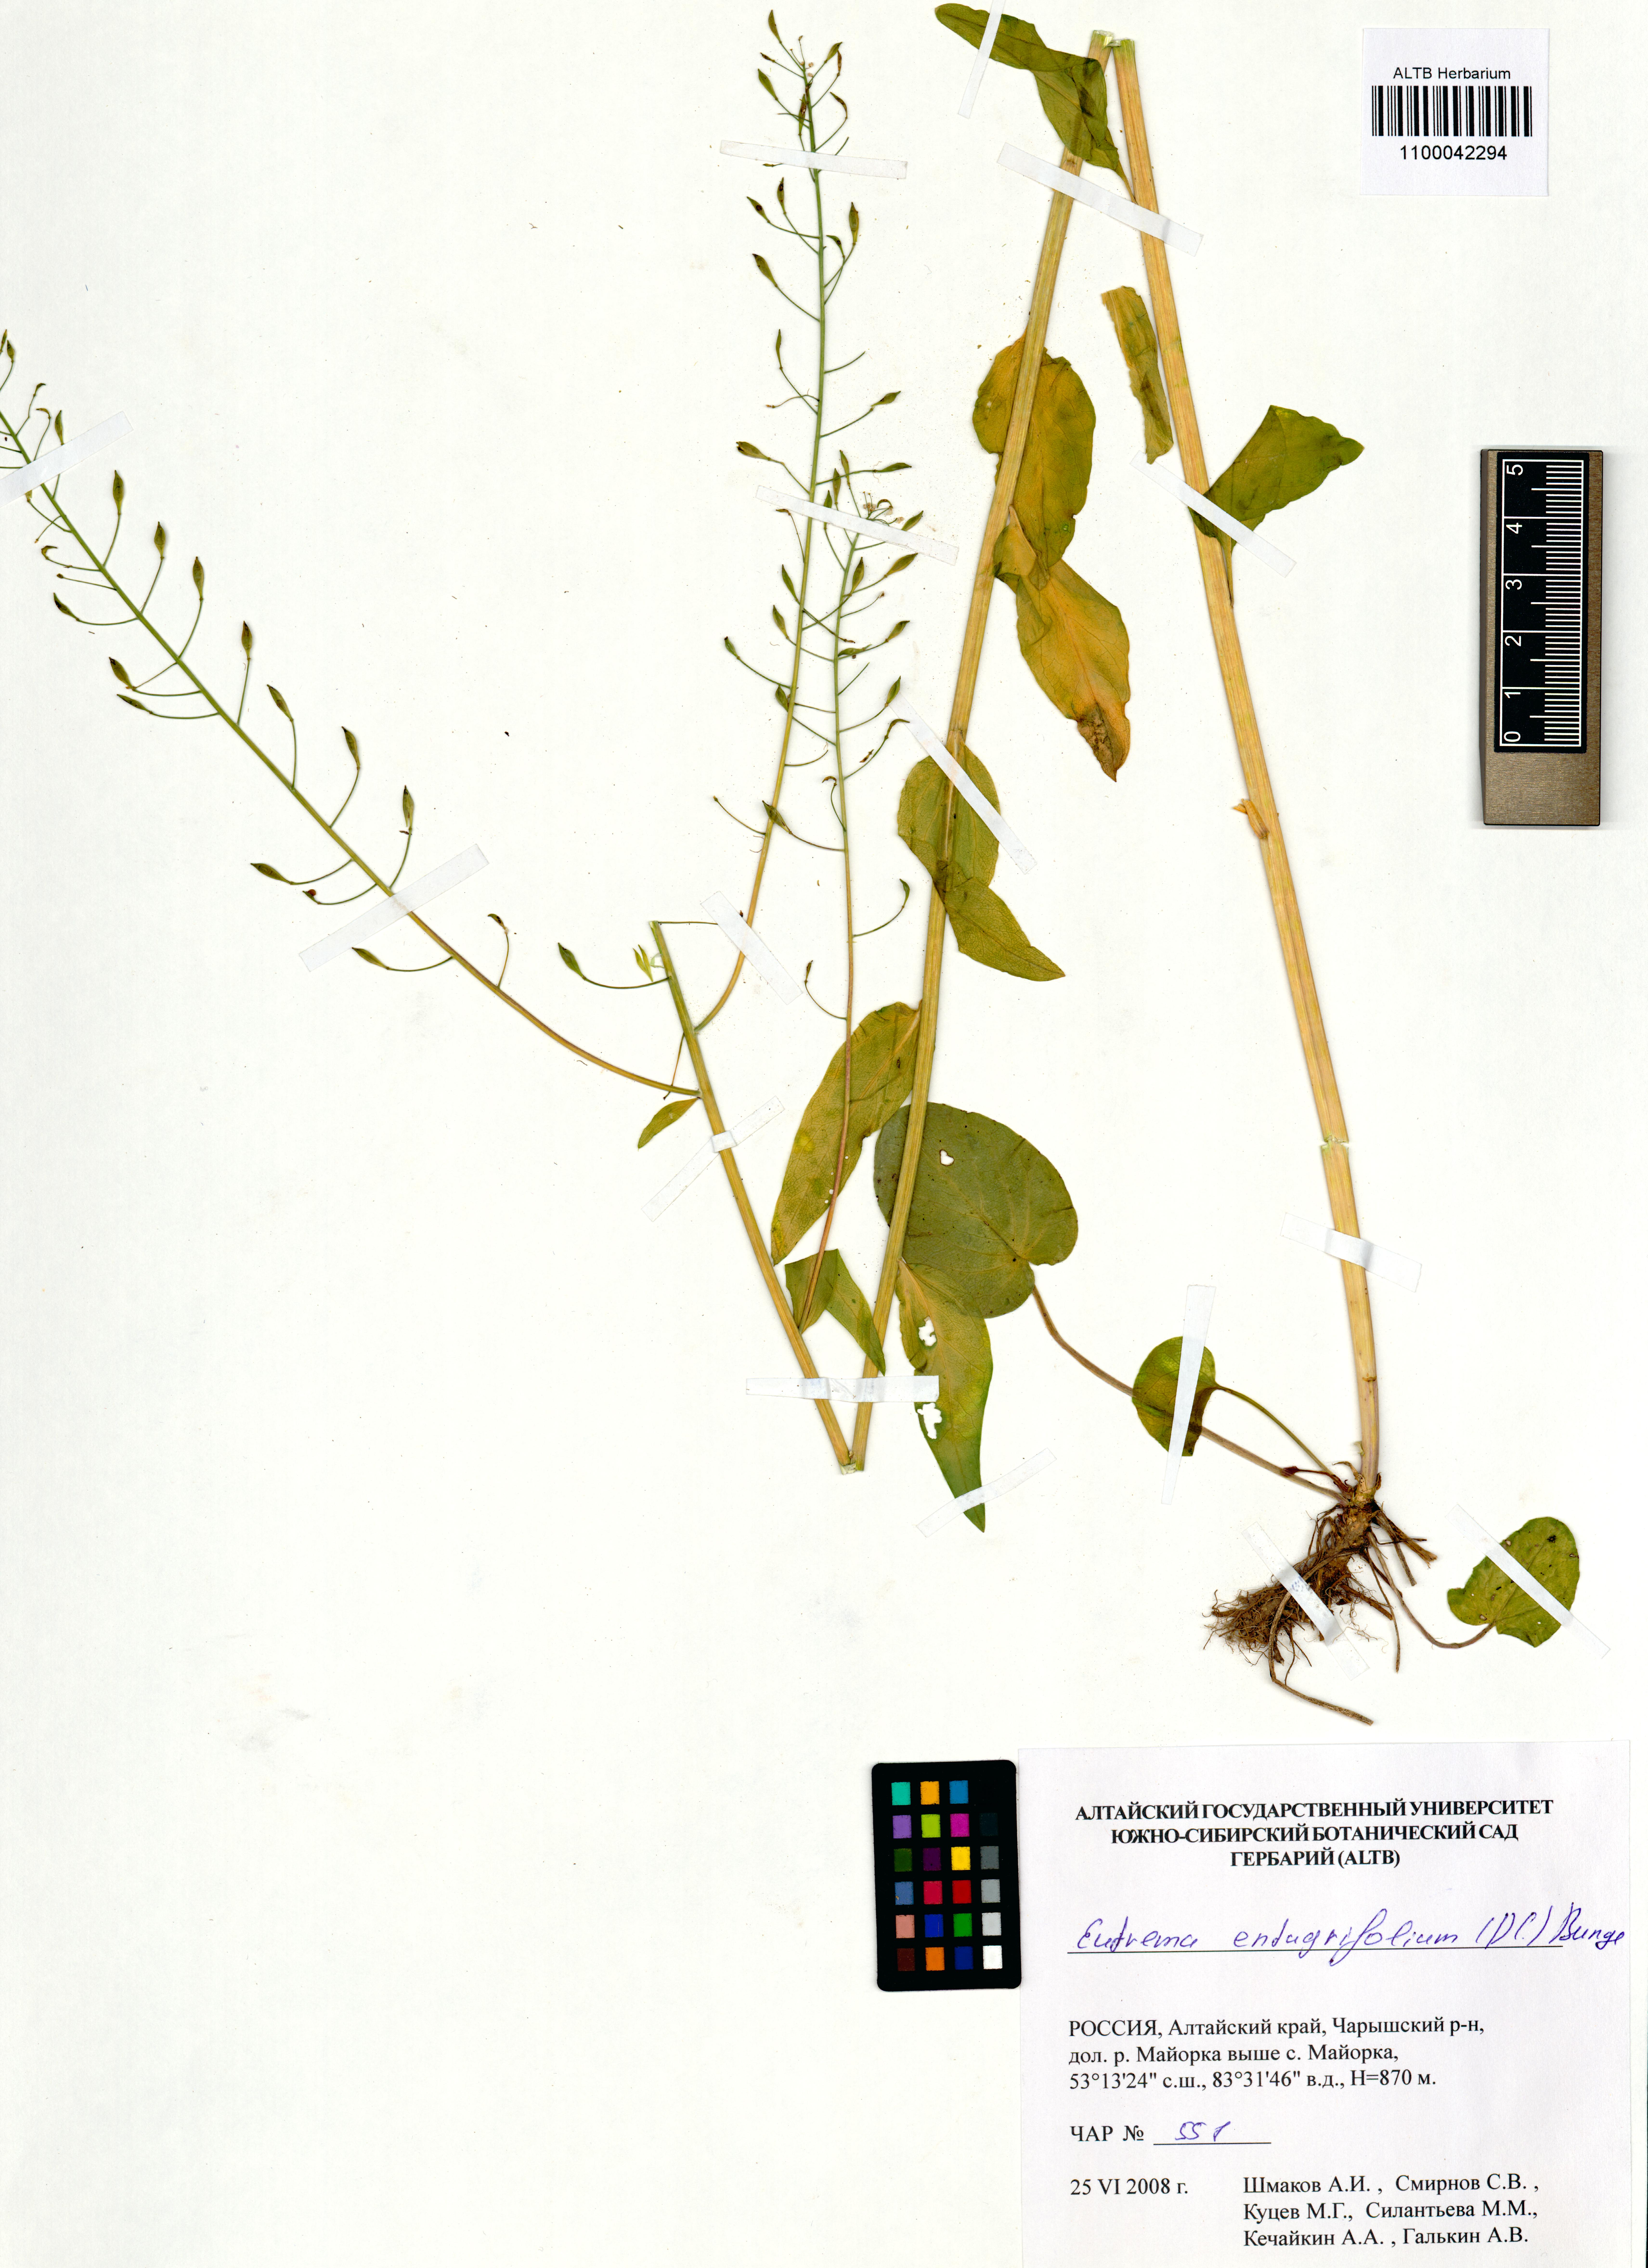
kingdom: Plantae
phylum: Tracheophyta
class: Magnoliopsida
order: Brassicales
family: Brassicaceae
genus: Eutrema
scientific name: Eutrema integrifolium
